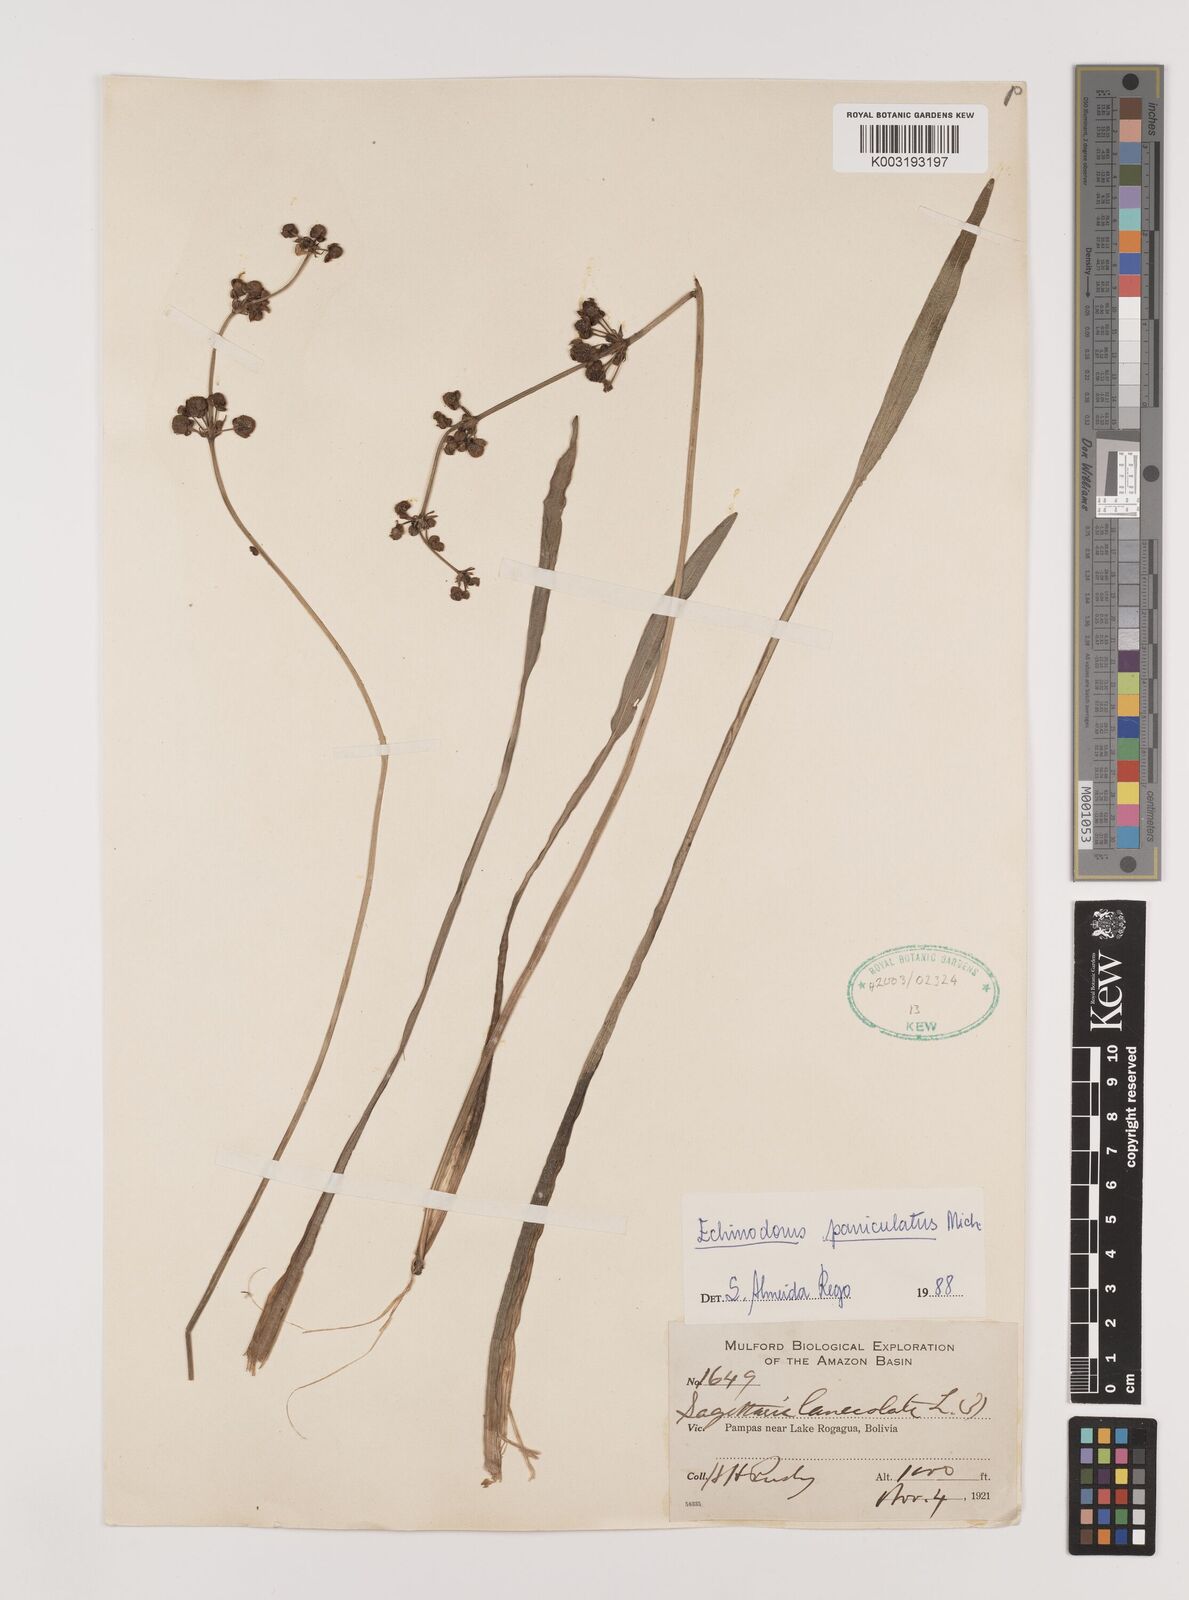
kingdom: Plantae
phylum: Tracheophyta
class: Liliopsida
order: Alismatales
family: Alismataceae
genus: Aquarius
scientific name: Aquarius paniculatus
